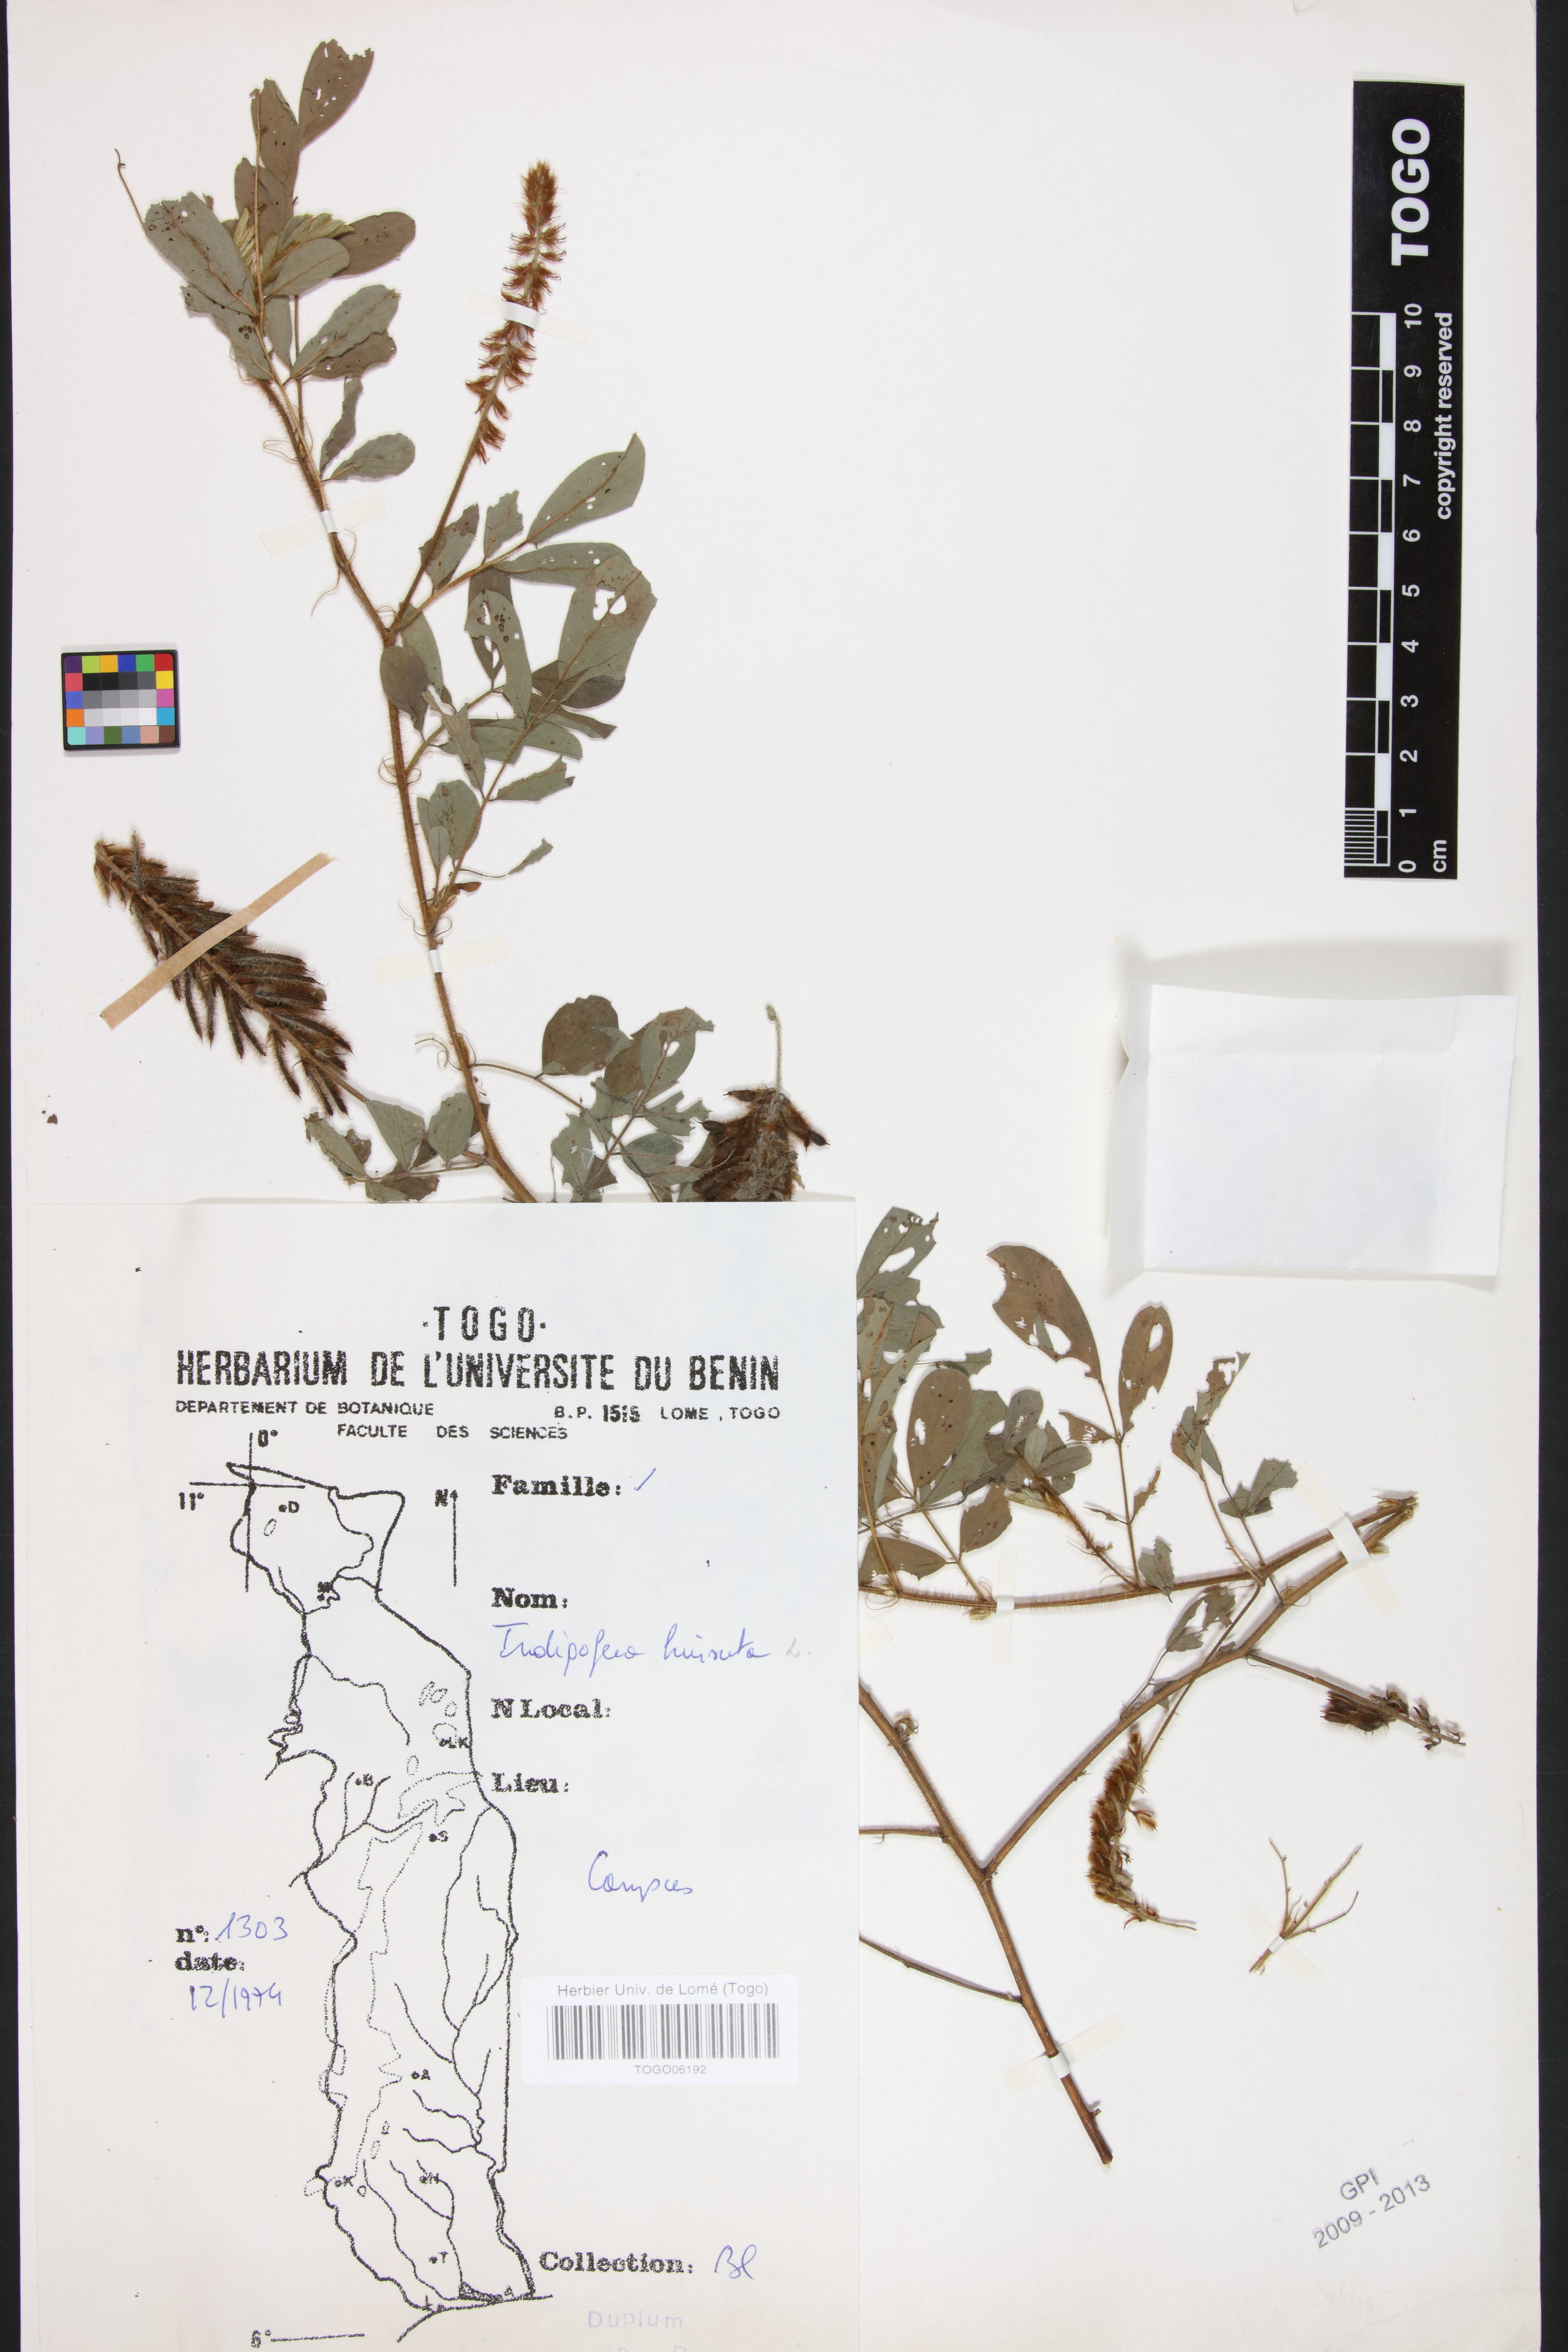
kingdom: Plantae
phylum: Tracheophyta
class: Magnoliopsida
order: Fabales
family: Fabaceae
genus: Indigofera
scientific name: Indigofera hirsuta
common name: Hairy indigo
